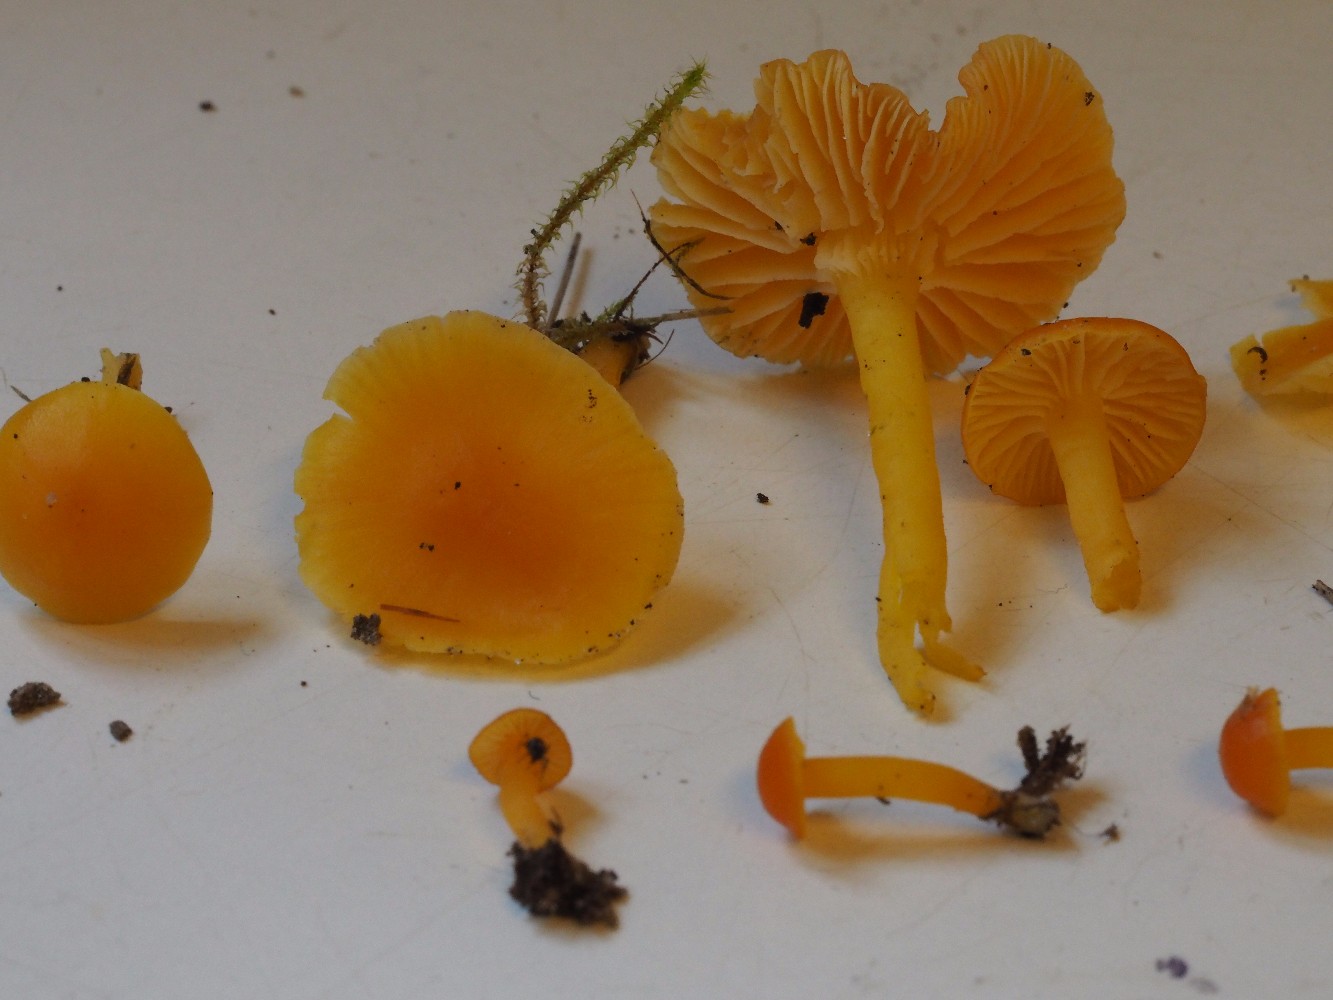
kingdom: Fungi
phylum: Basidiomycota
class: Agaricomycetes
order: Agaricales
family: Hygrophoraceae
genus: Hygrocybe
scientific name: Hygrocybe ceracea
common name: voksgul vokshat
